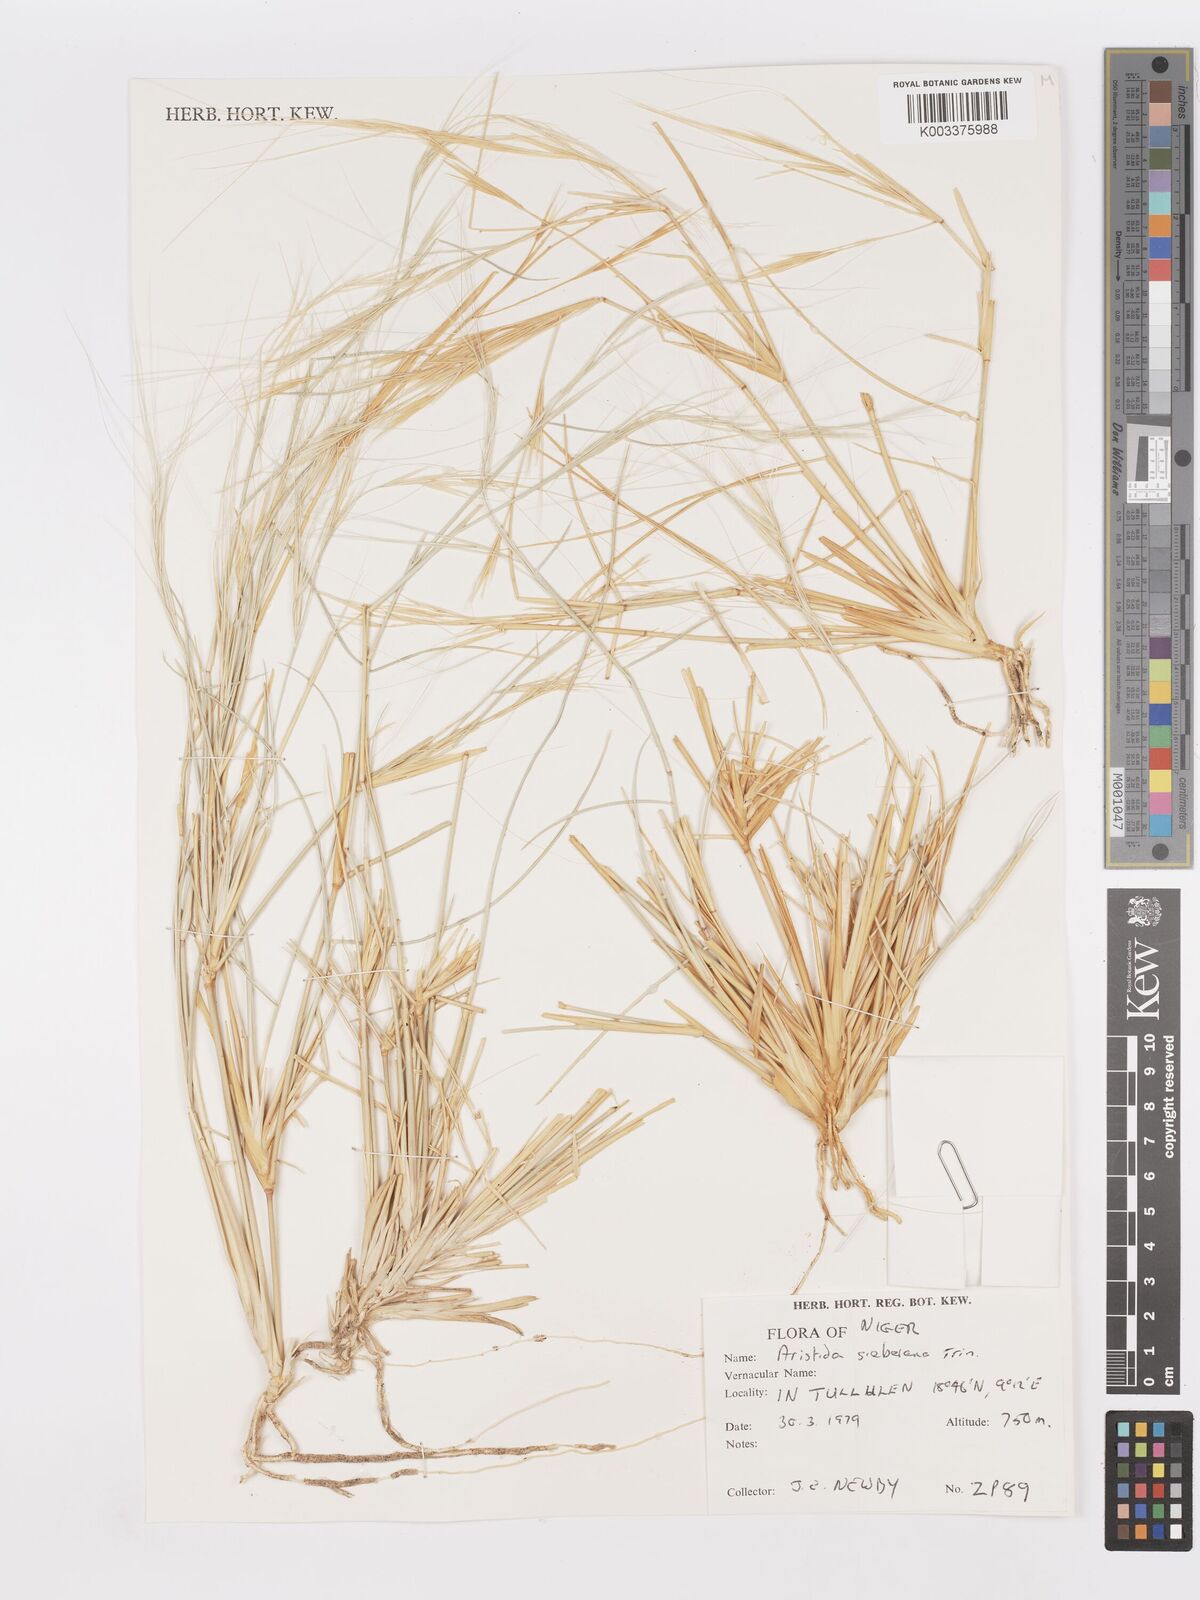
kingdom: Plantae
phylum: Tracheophyta
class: Liliopsida
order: Poales
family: Poaceae
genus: Aristida
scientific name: Aristida sieberiana
